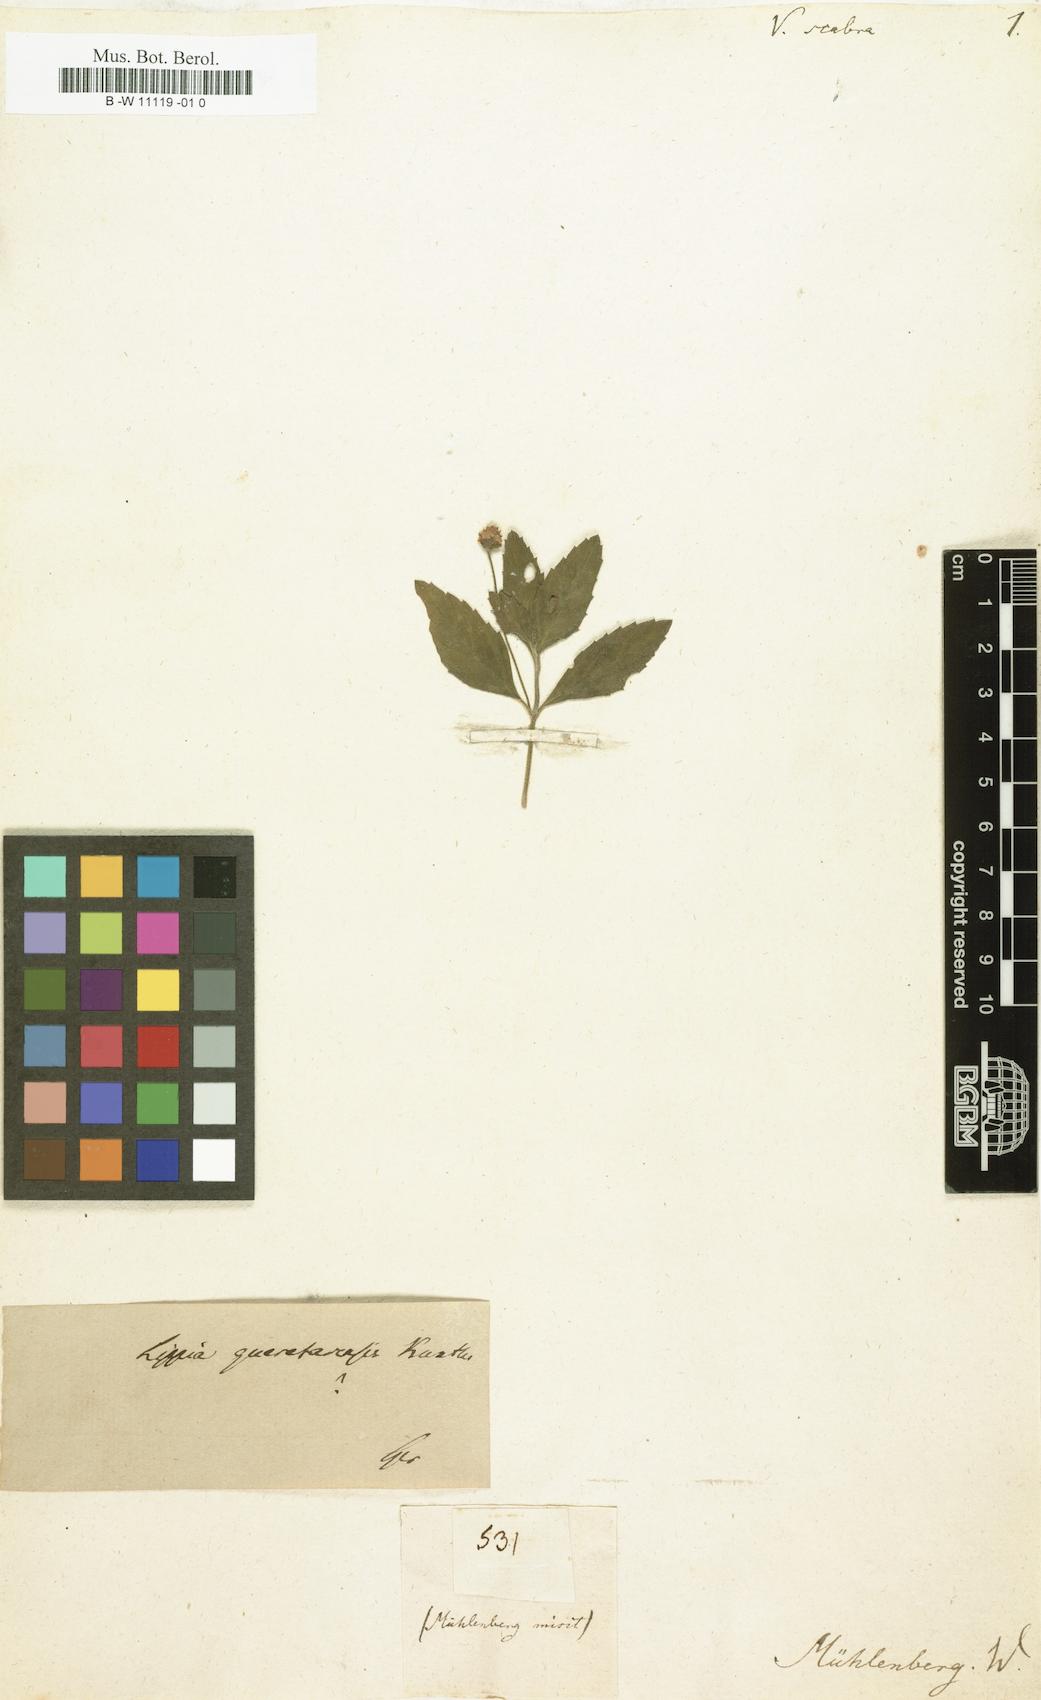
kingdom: Plantae
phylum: Tracheophyta
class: Magnoliopsida
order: Lamiales
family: Verbenaceae
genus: Verbena
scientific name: Verbena scabra
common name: Sandpaper vervain
